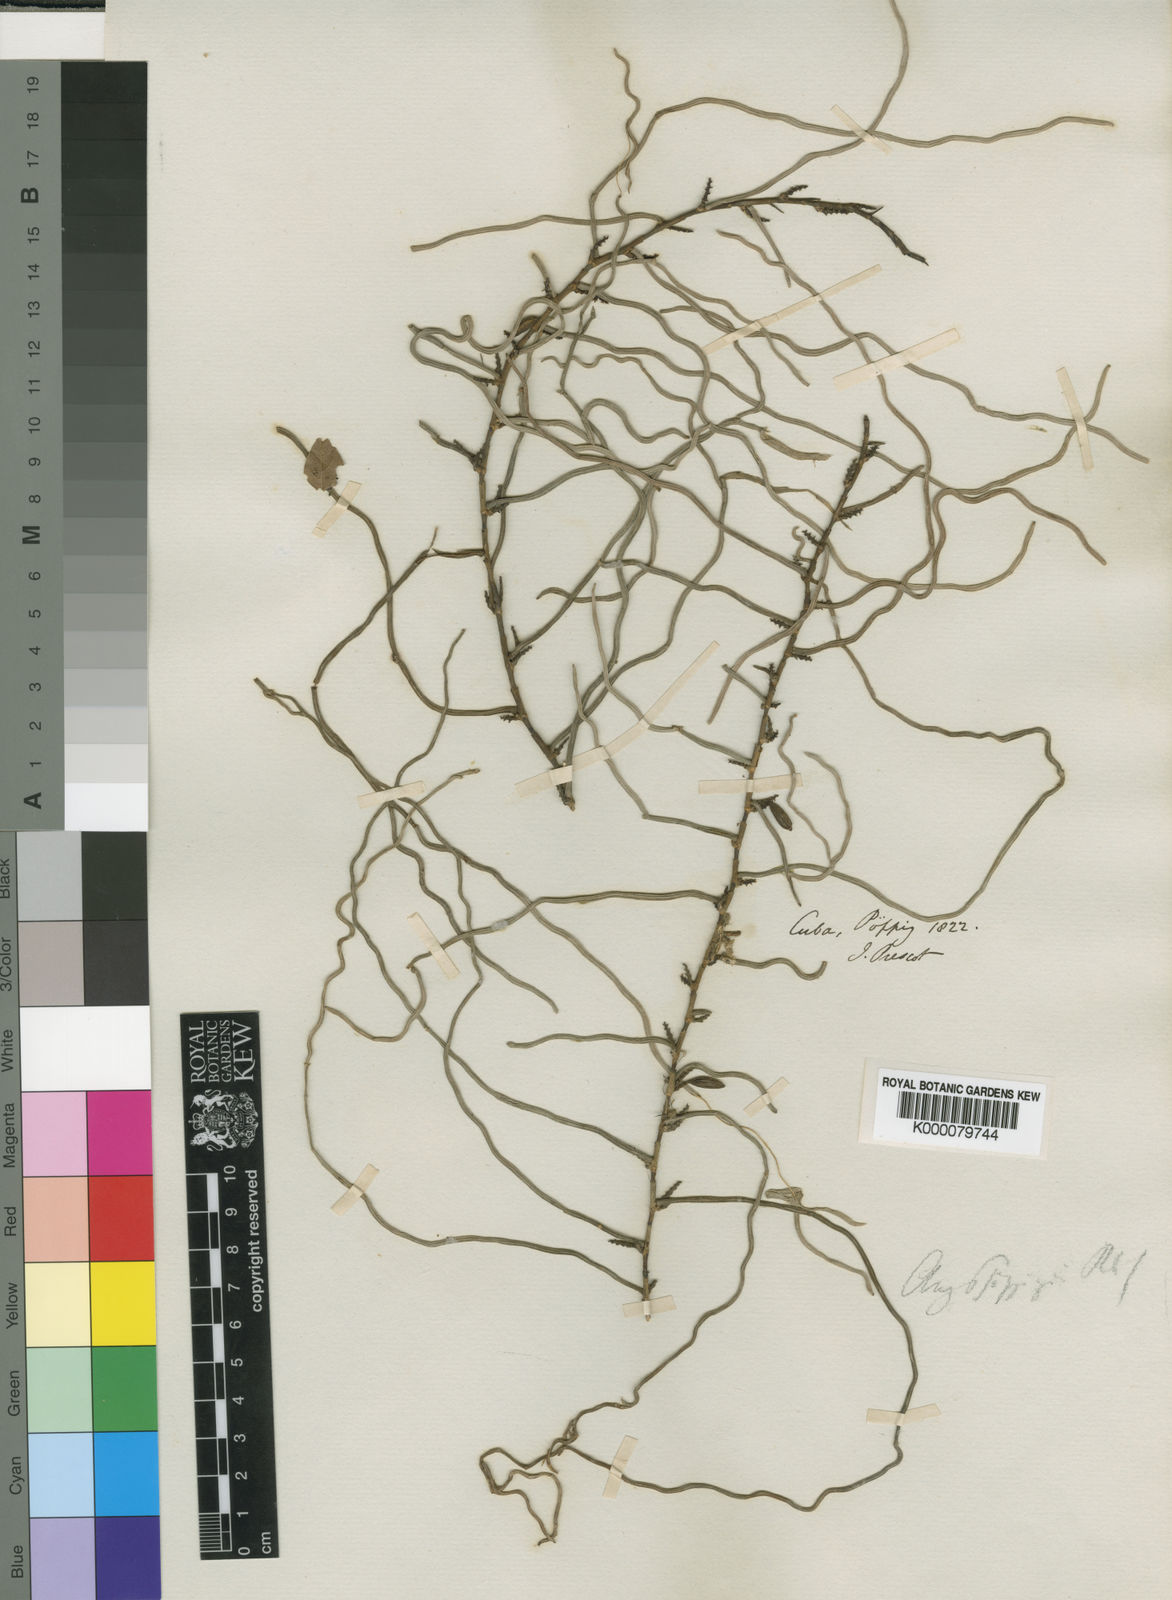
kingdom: Plantae
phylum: Tracheophyta
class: Liliopsida
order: Asparagales
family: Orchidaceae
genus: Campylocentrum
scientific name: Campylocentrum poeppigii
